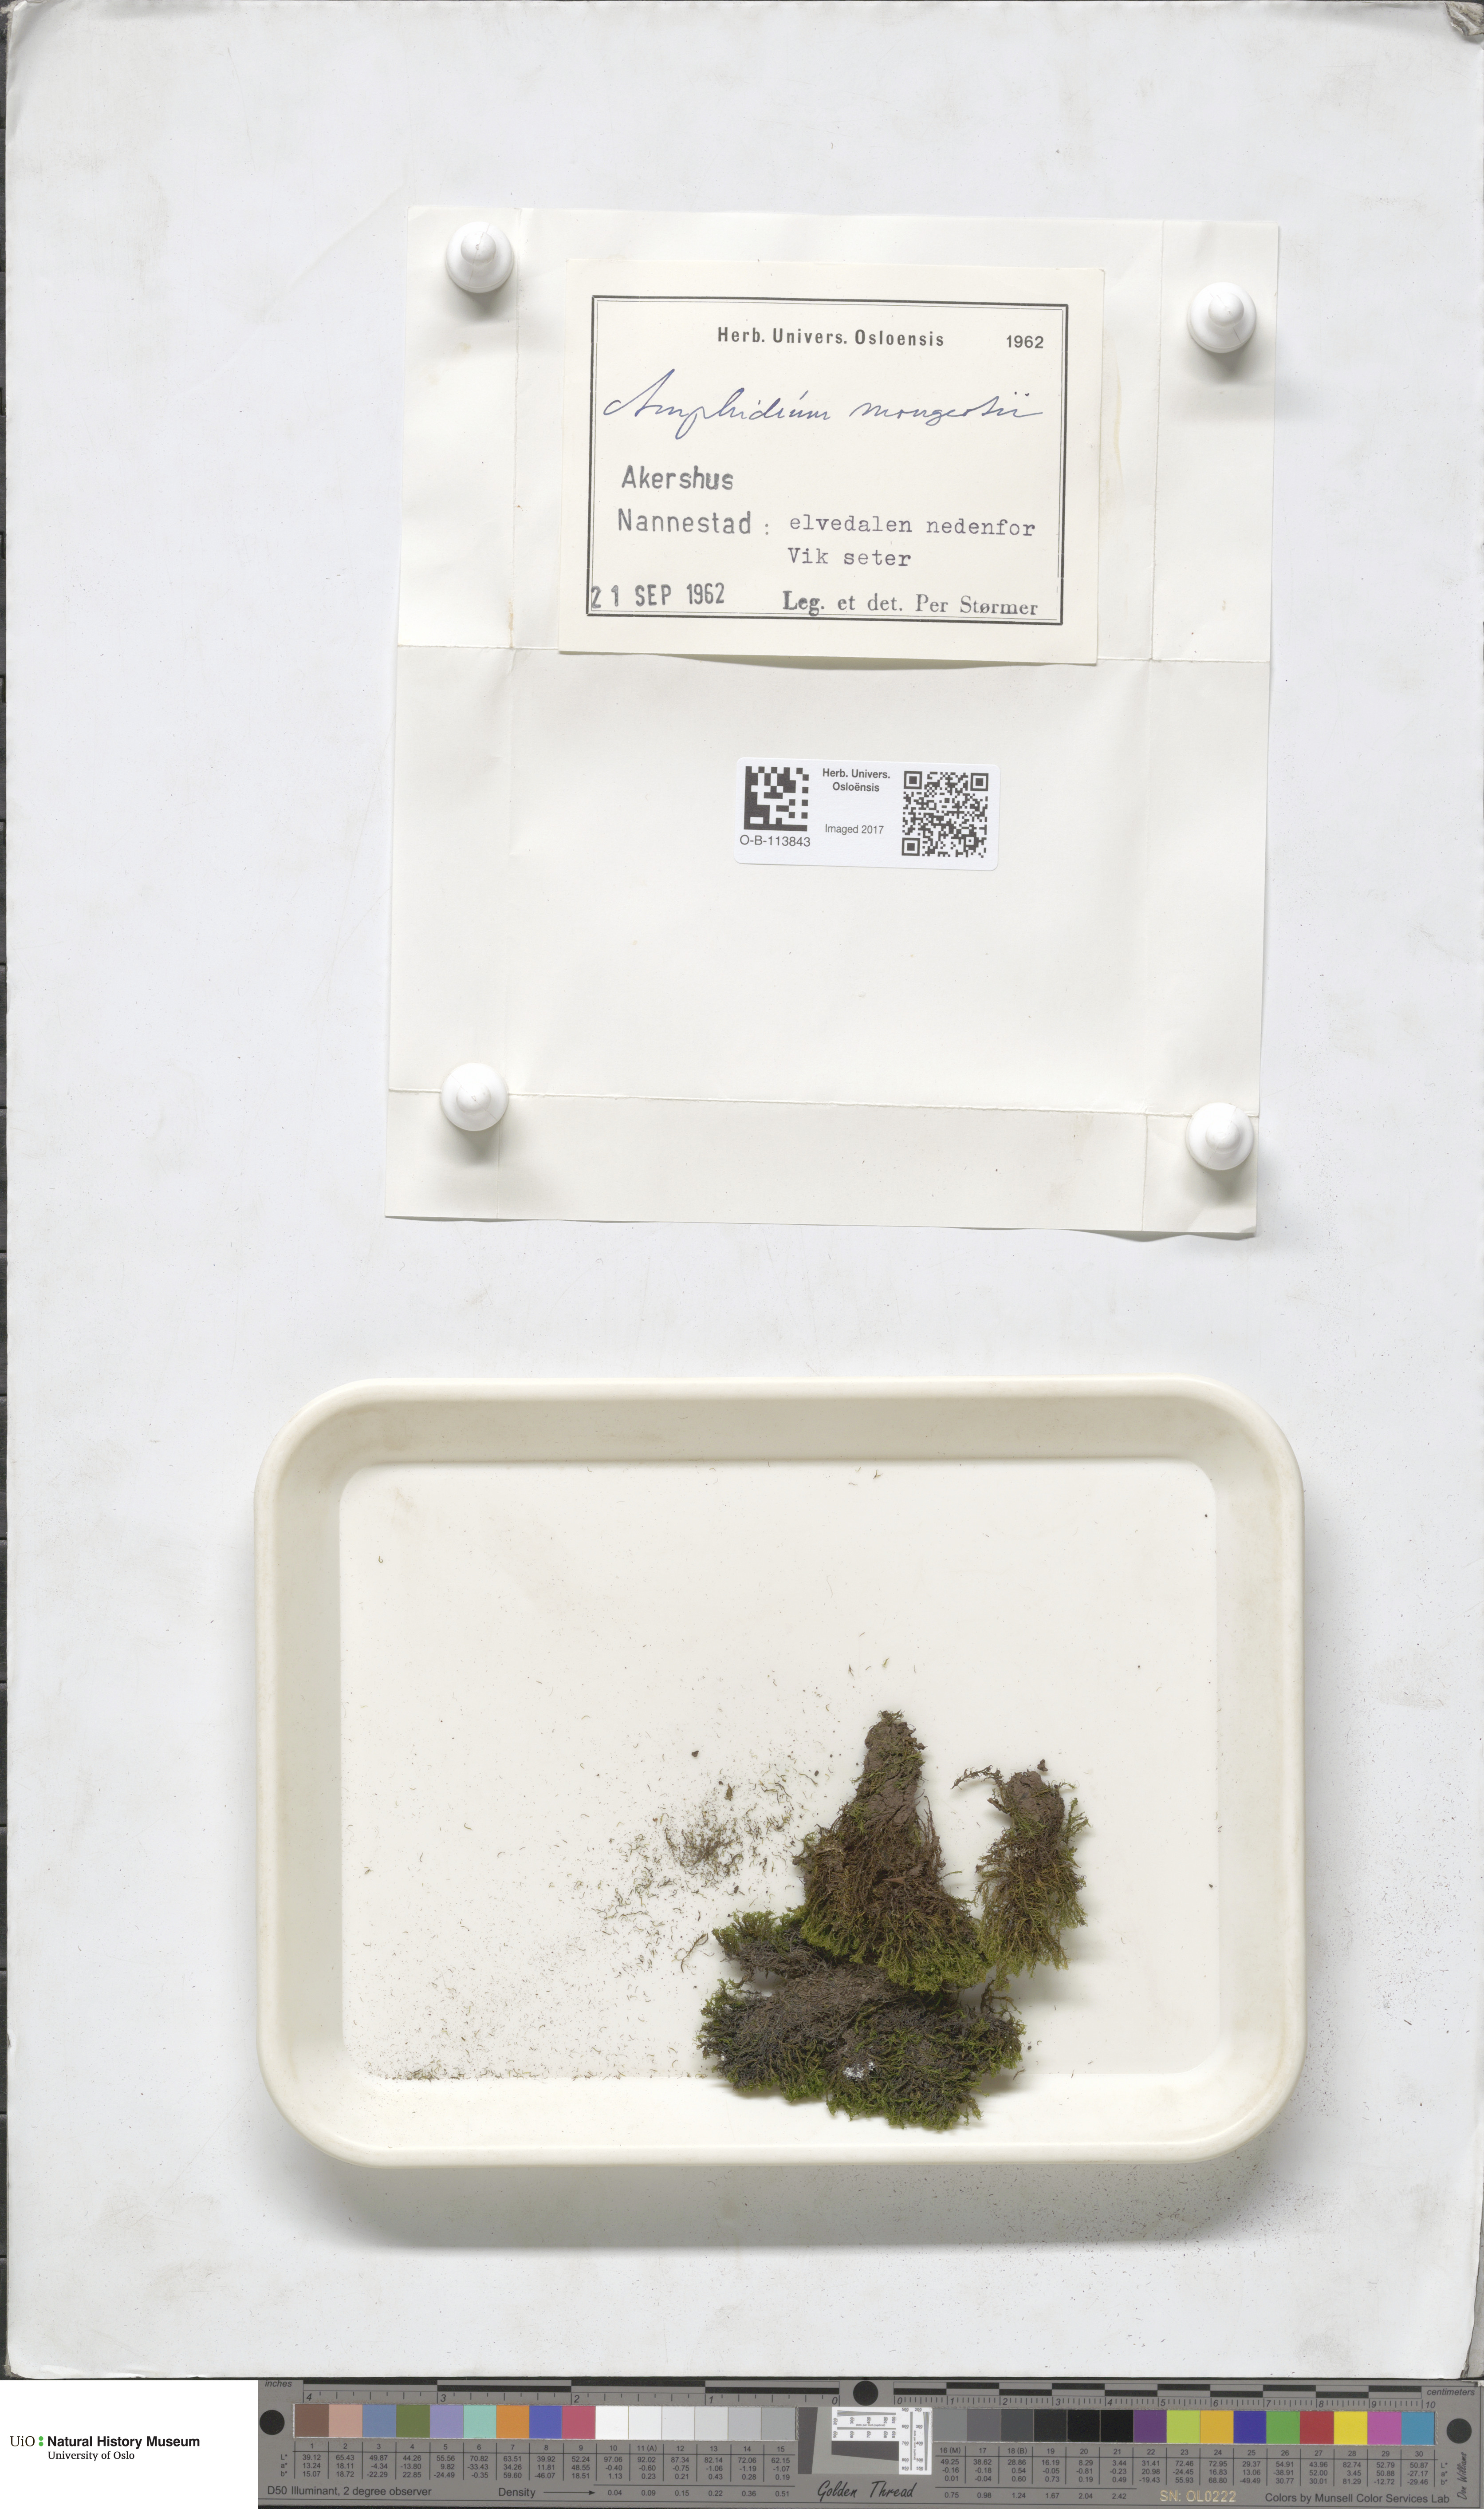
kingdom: Plantae
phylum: Bryophyta
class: Bryopsida
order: Dicranales
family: Amphidiaceae
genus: Amphidium
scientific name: Amphidium mougeotii
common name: Mougeot's yoke moss
